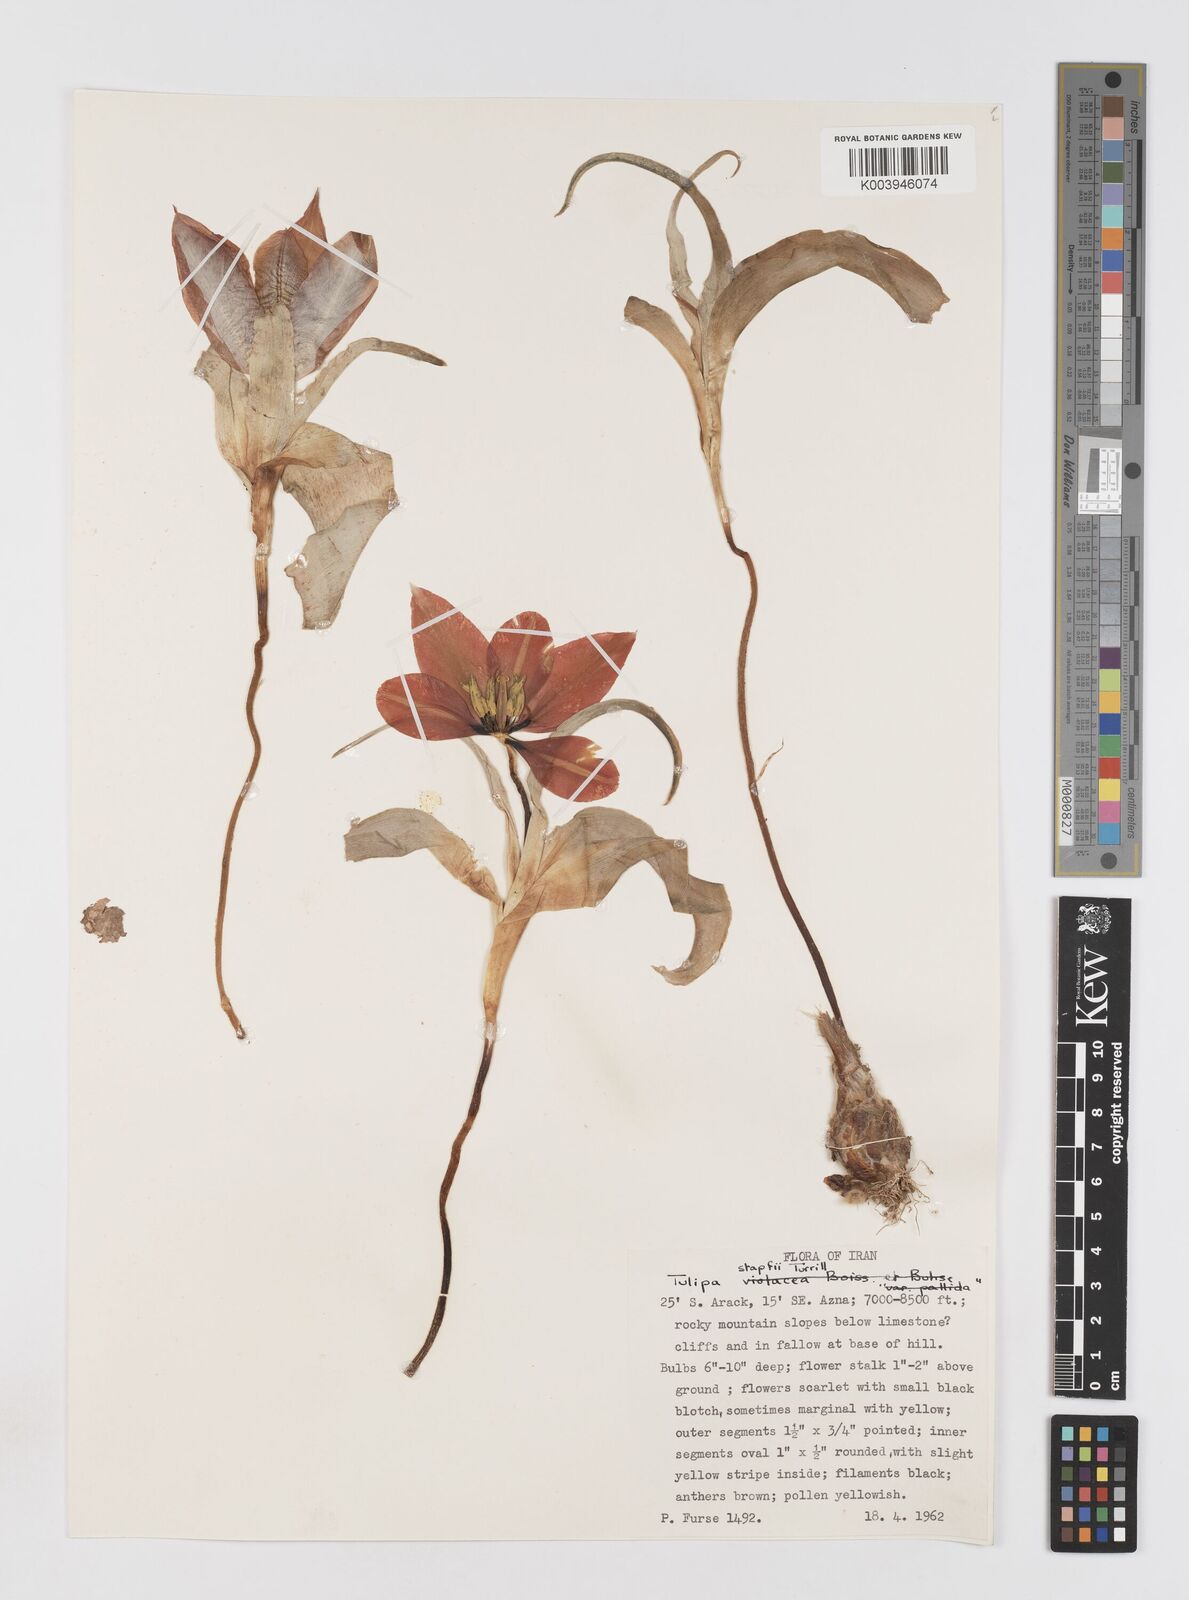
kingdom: Plantae
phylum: Tracheophyta
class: Liliopsida
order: Liliales
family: Liliaceae
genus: Tulipa
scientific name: Tulipa systola
